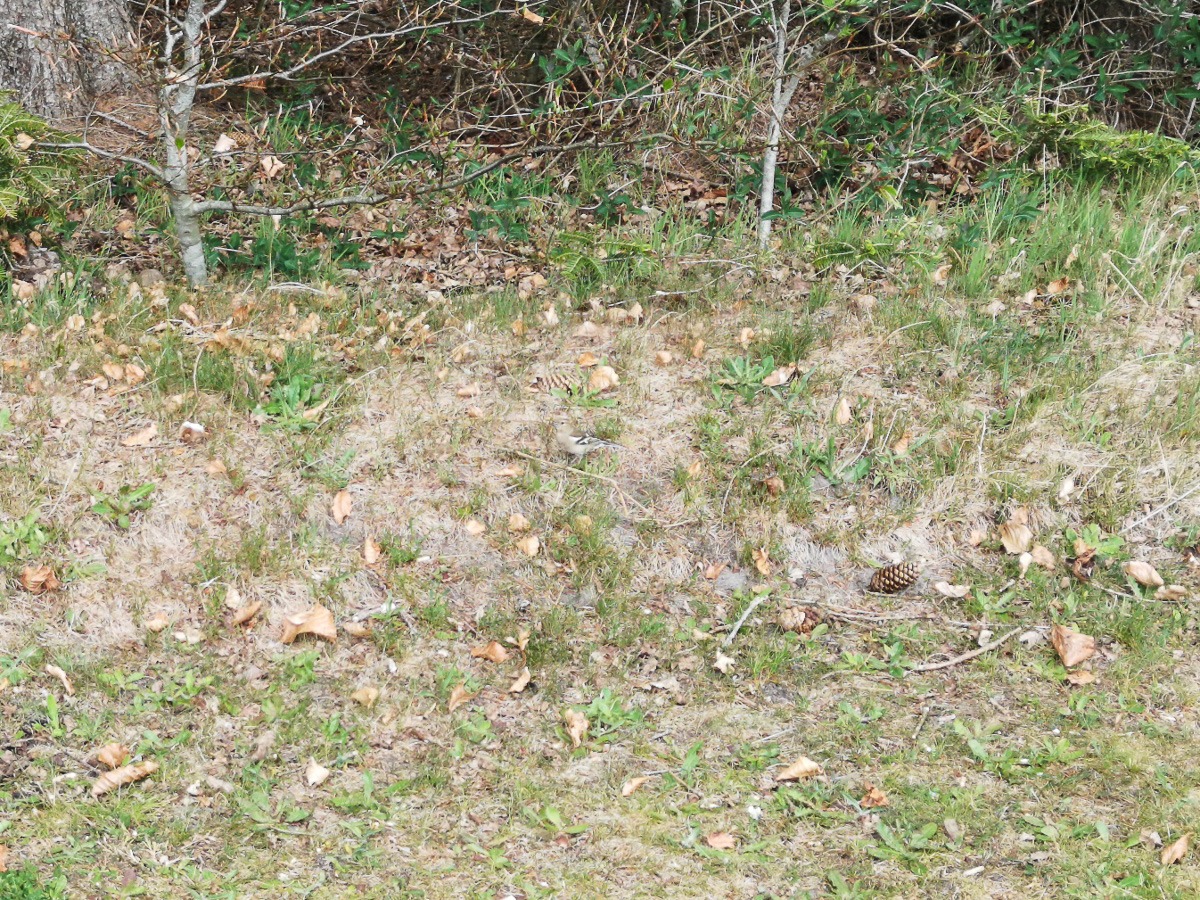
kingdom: Animalia
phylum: Chordata
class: Aves
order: Passeriformes
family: Fringillidae
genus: Fringilla
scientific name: Fringilla coelebs
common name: Bogfinke
